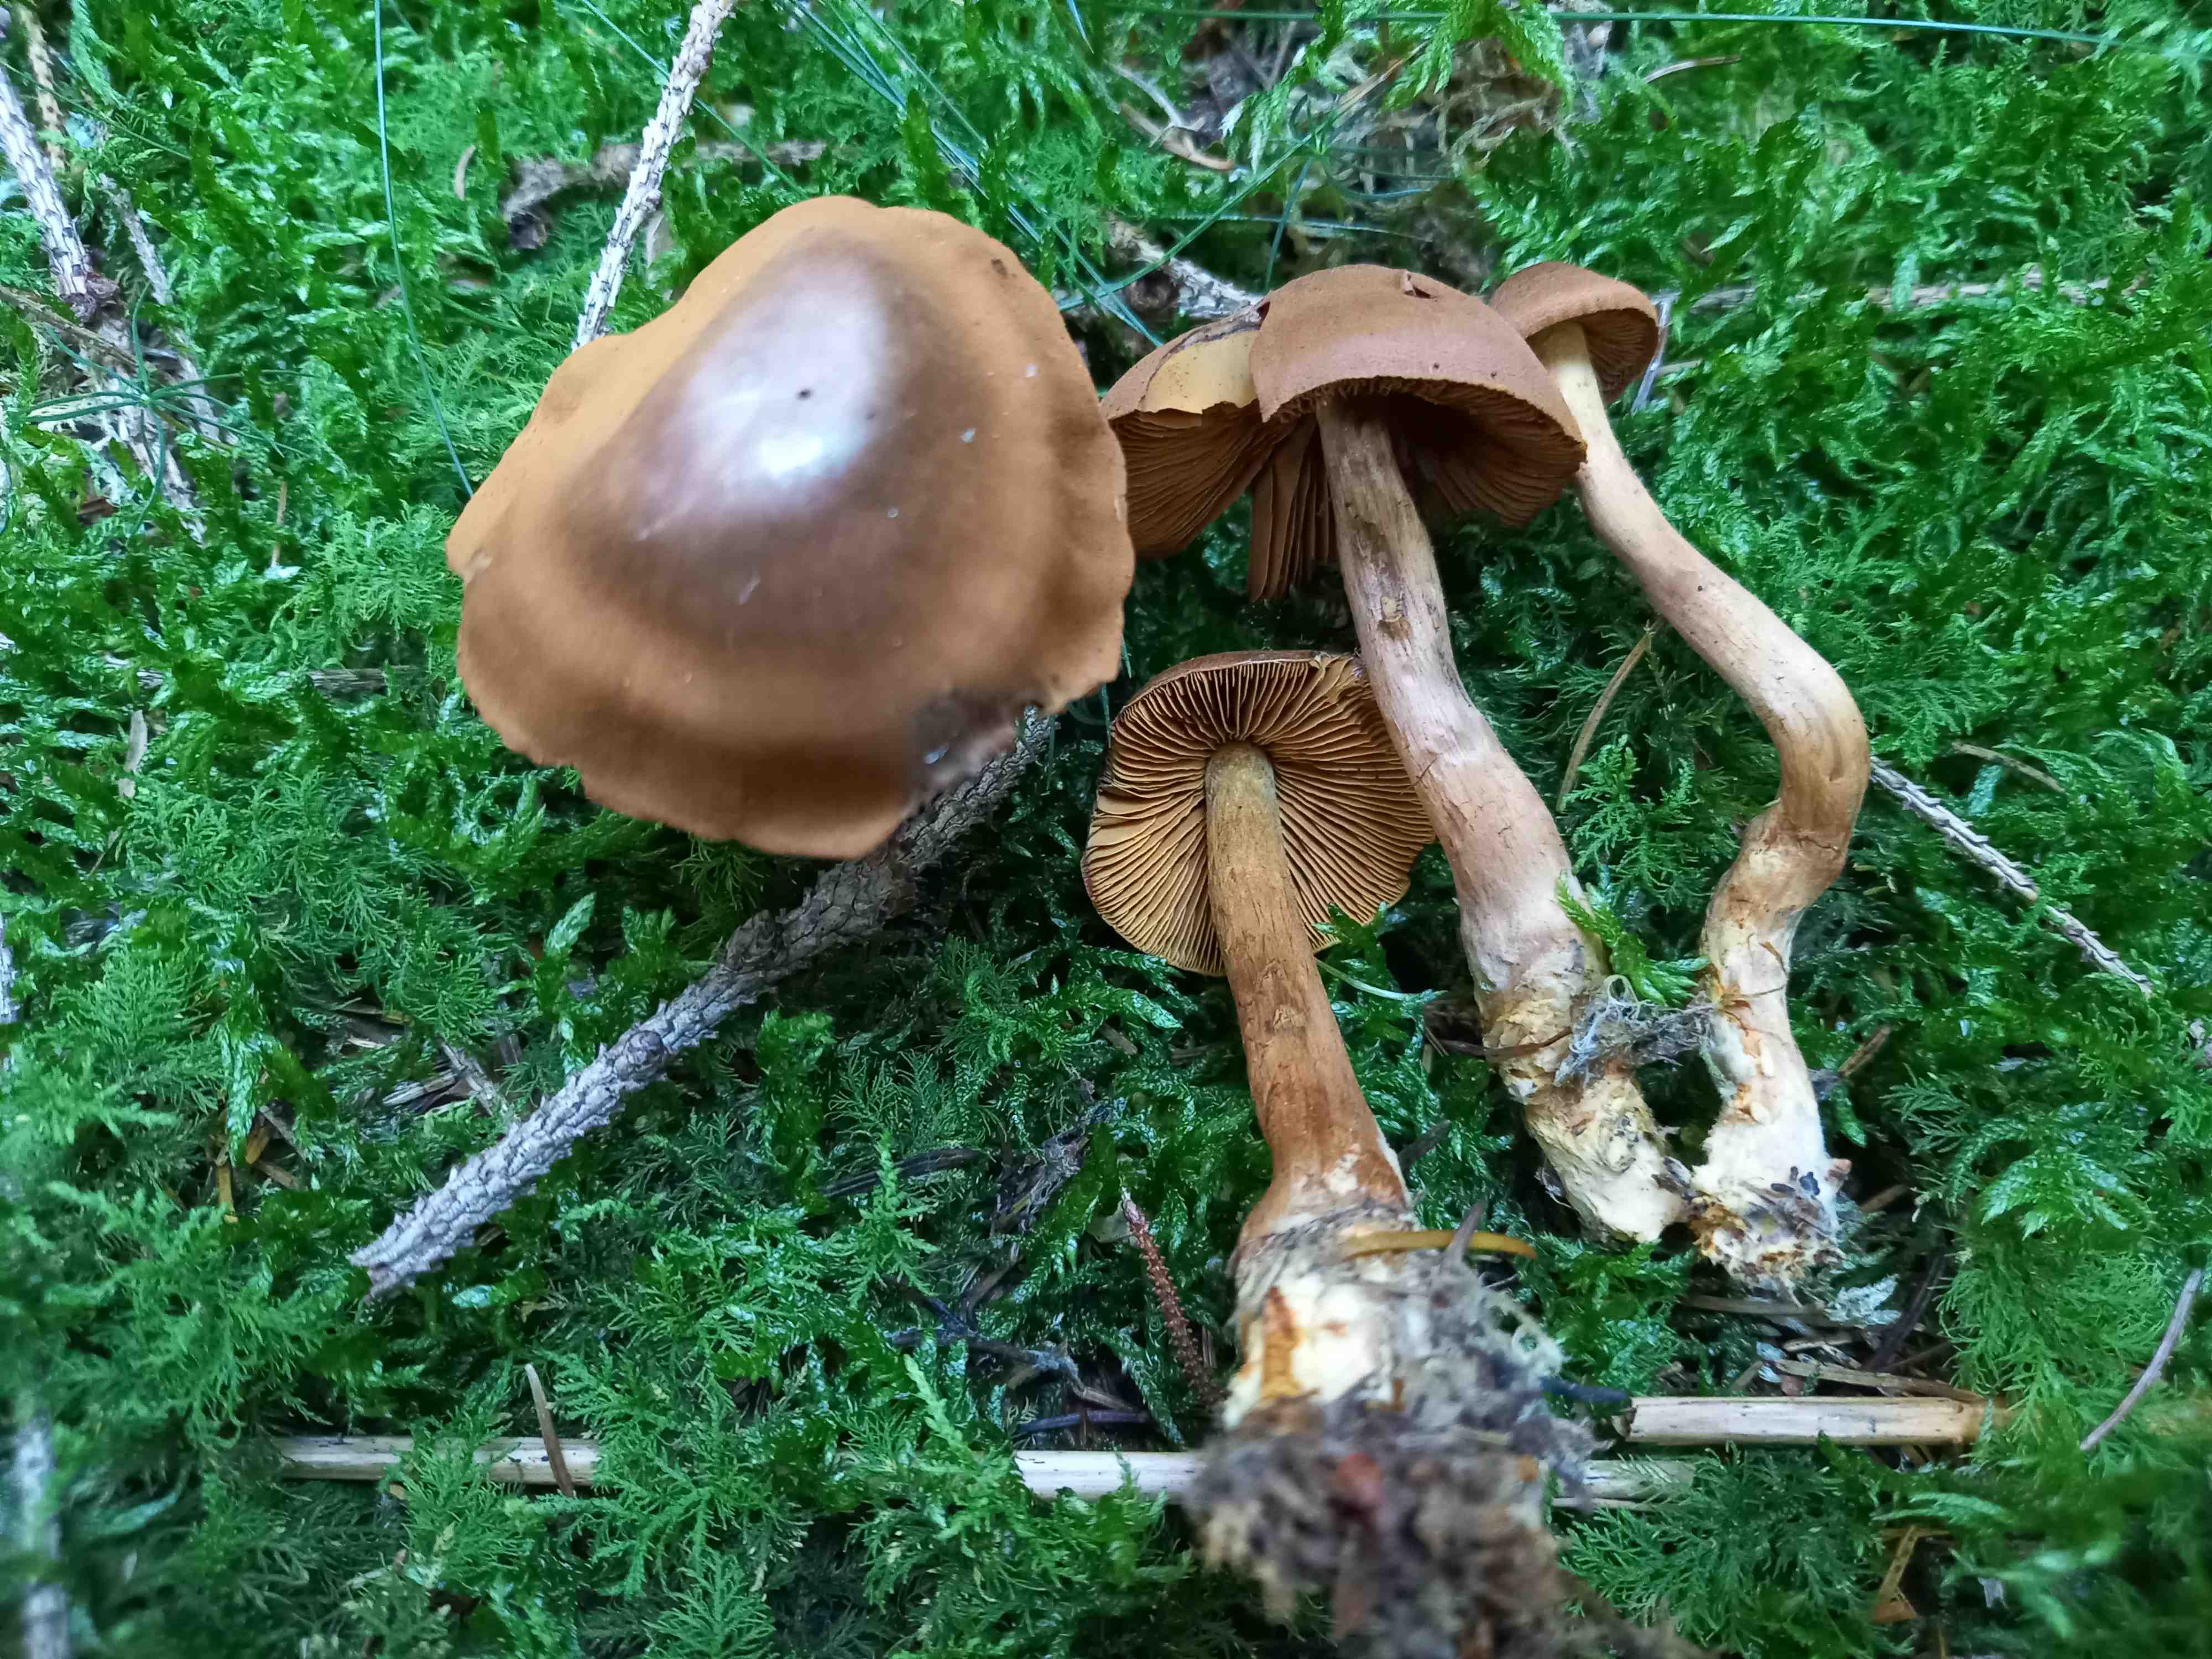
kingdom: Fungi
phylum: Basidiomycota
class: Agaricomycetes
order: Agaricales
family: Cortinariaceae
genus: Cortinarius
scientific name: Cortinarius
